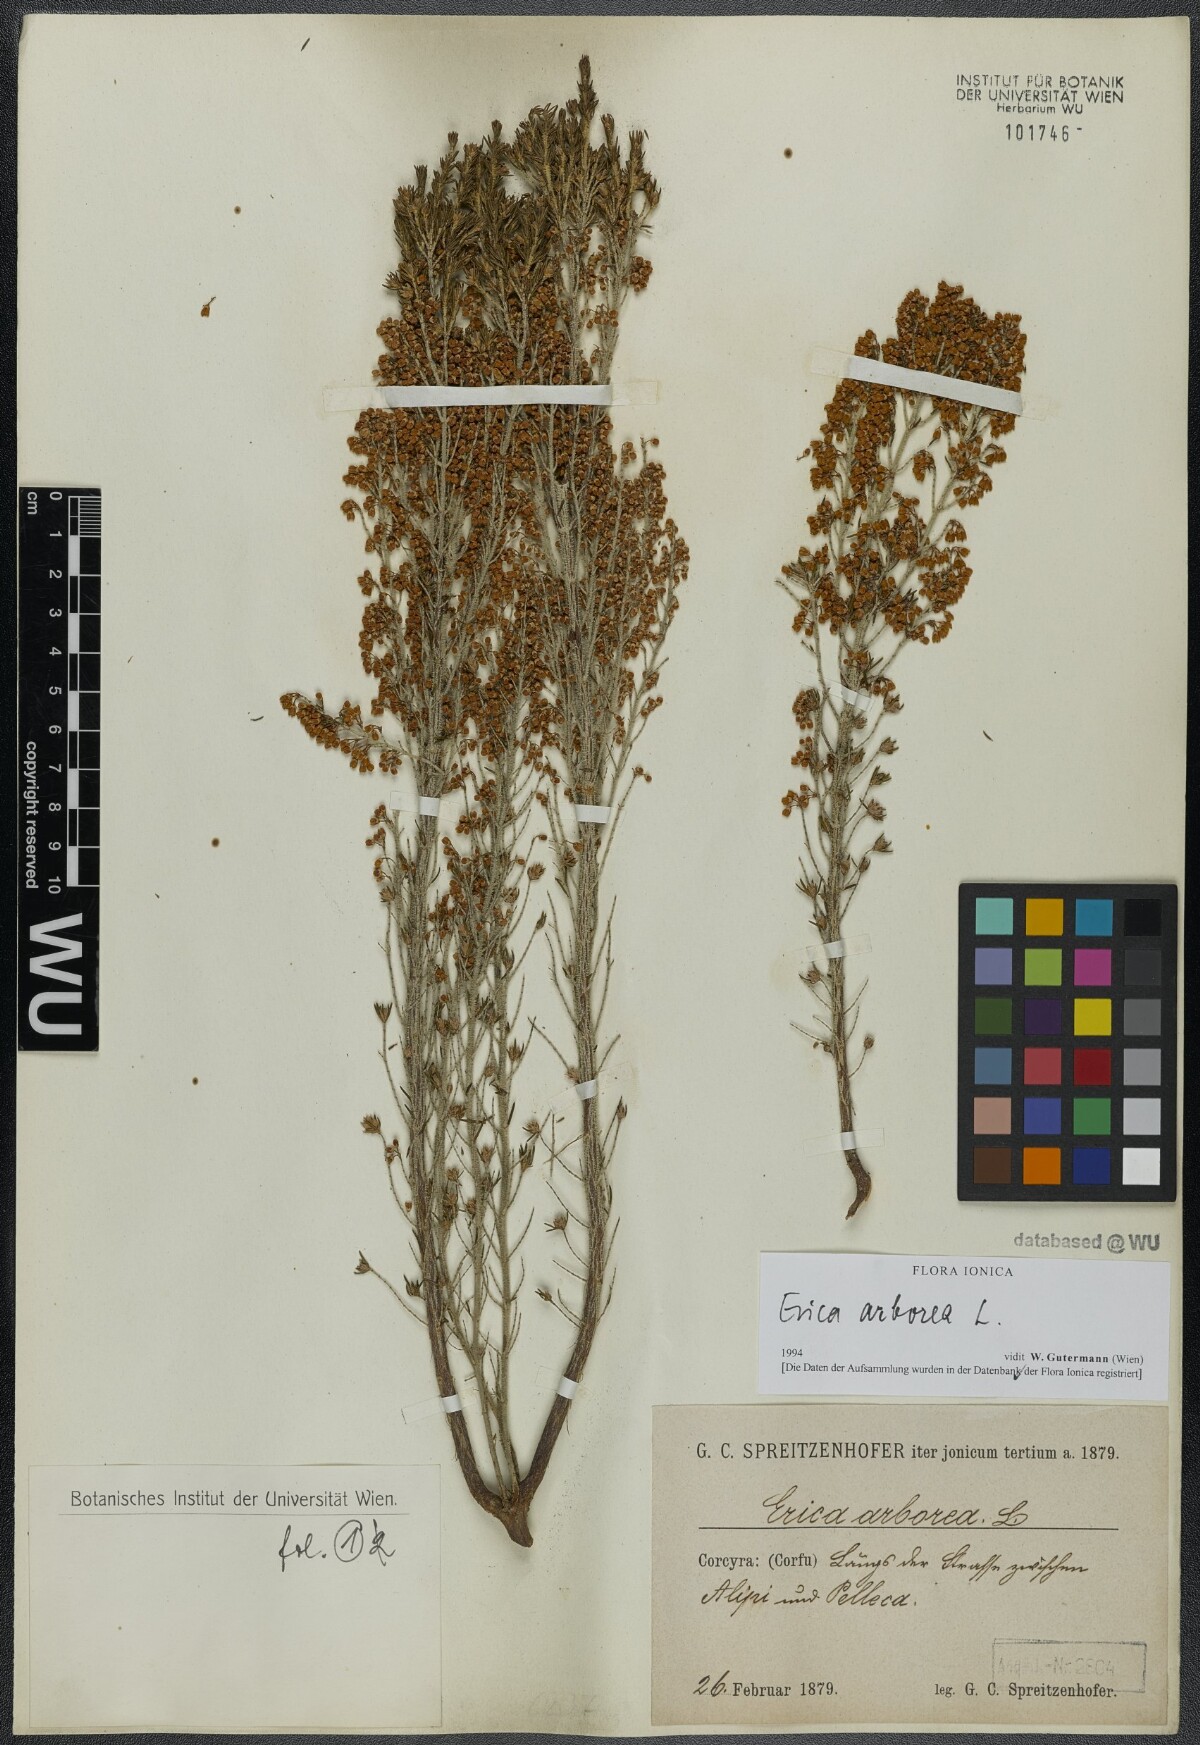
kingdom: Plantae
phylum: Tracheophyta
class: Magnoliopsida
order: Ericales
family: Ericaceae
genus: Erica
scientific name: Erica arborea
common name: Tree heath
